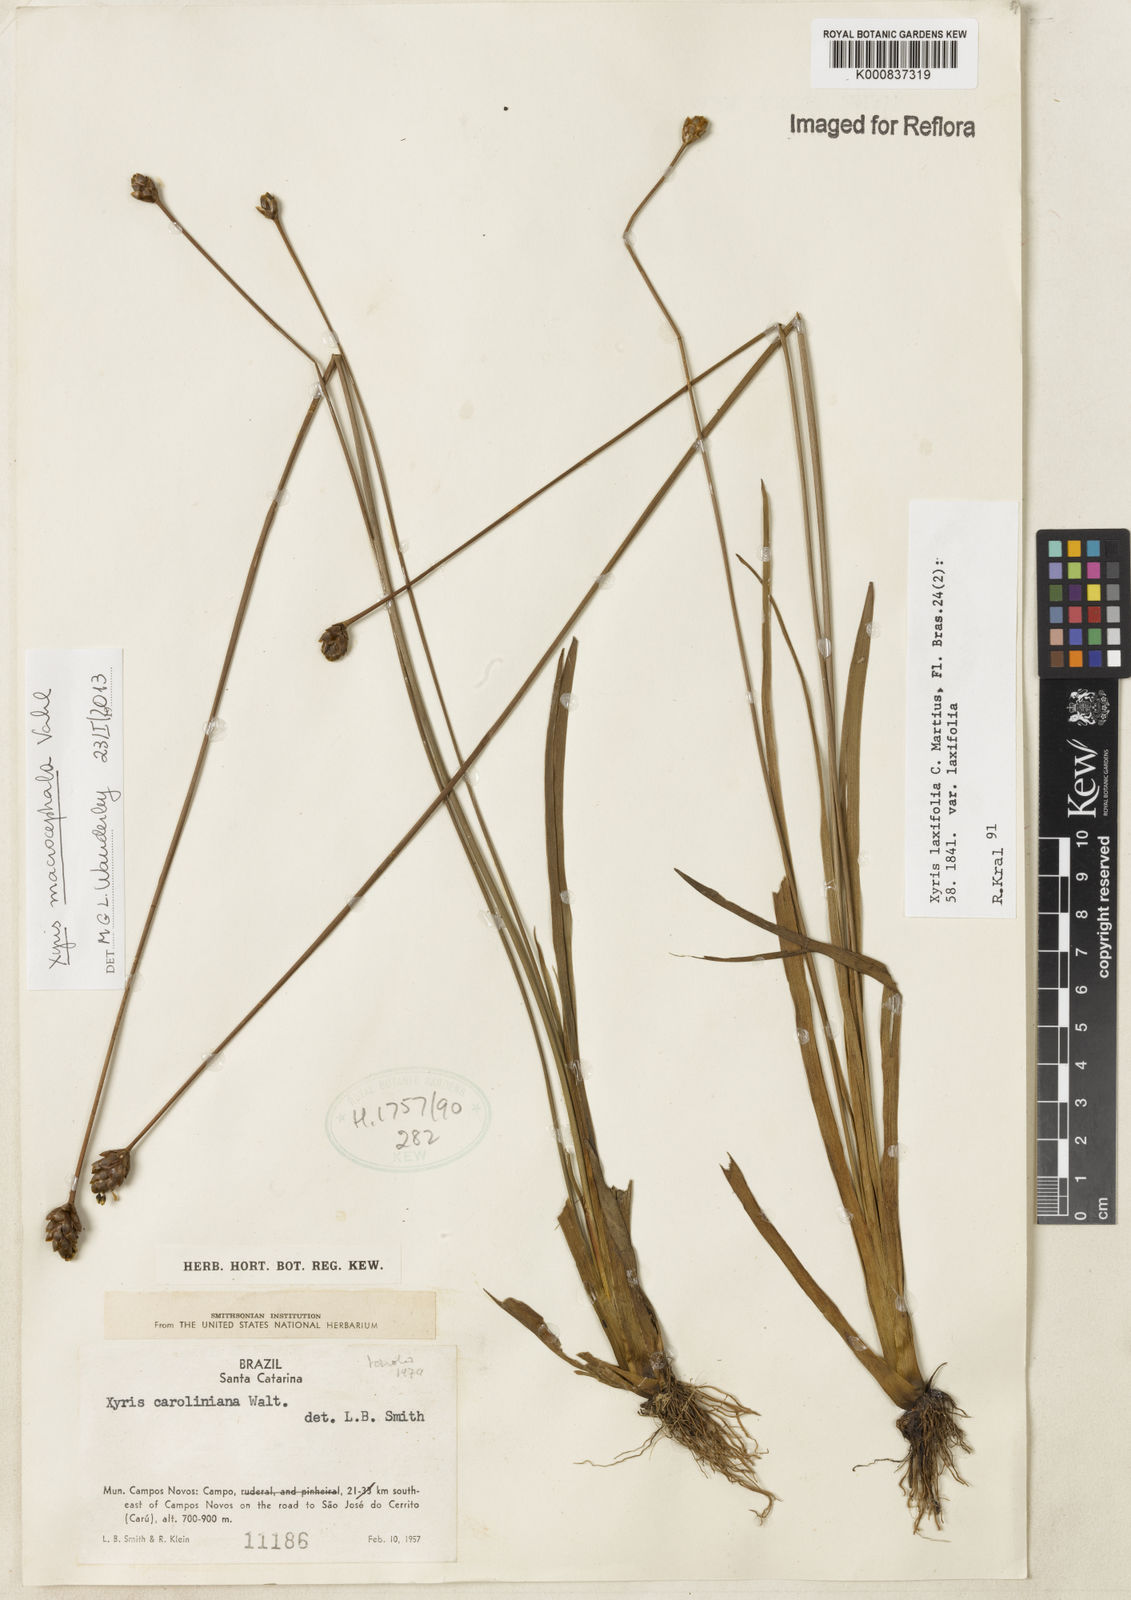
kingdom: Plantae
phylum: Tracheophyta
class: Liliopsida
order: Poales
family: Xyridaceae
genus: Xyris
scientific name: Xyris jupicai
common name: Richard's yelloweyed grass
